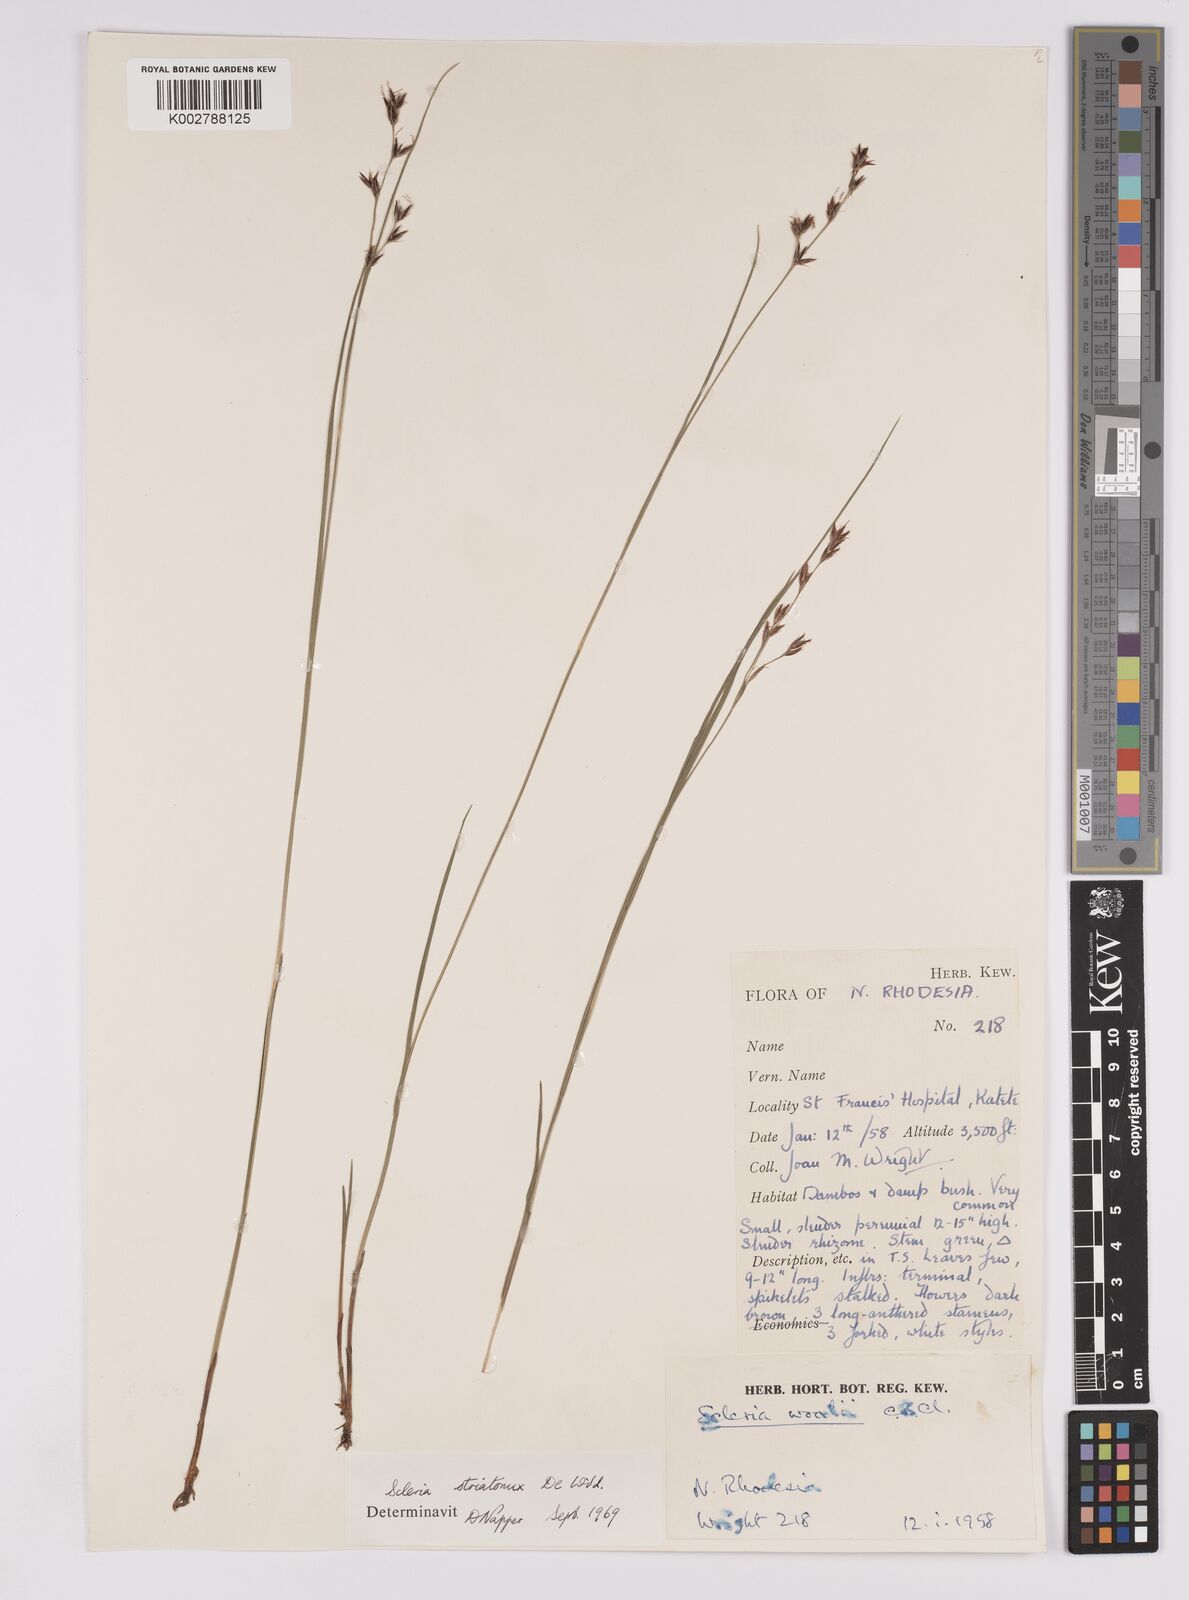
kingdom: Plantae
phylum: Tracheophyta
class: Liliopsida
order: Poales
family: Cyperaceae
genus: Scleria
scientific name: Scleria woodii
